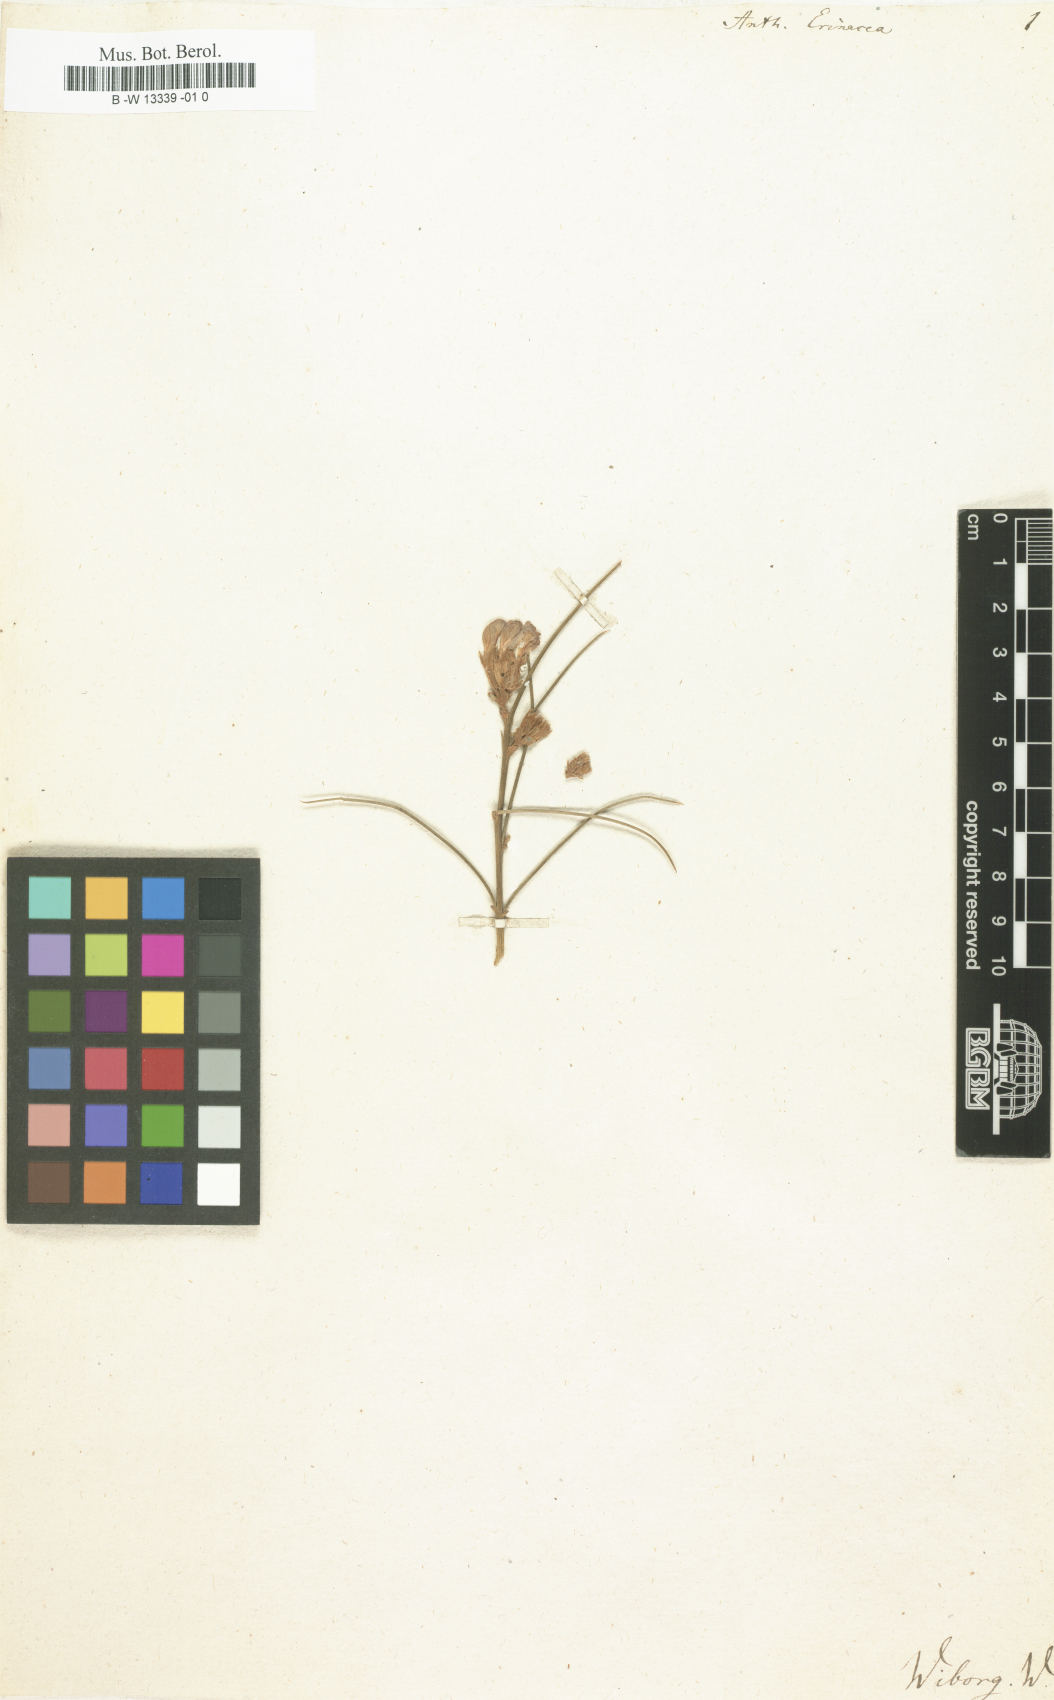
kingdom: Plantae
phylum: Tracheophyta
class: Magnoliopsida
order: Fabales
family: Fabaceae
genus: Erinacea
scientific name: Erinacea anthyllis
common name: Hedgehog-broom
